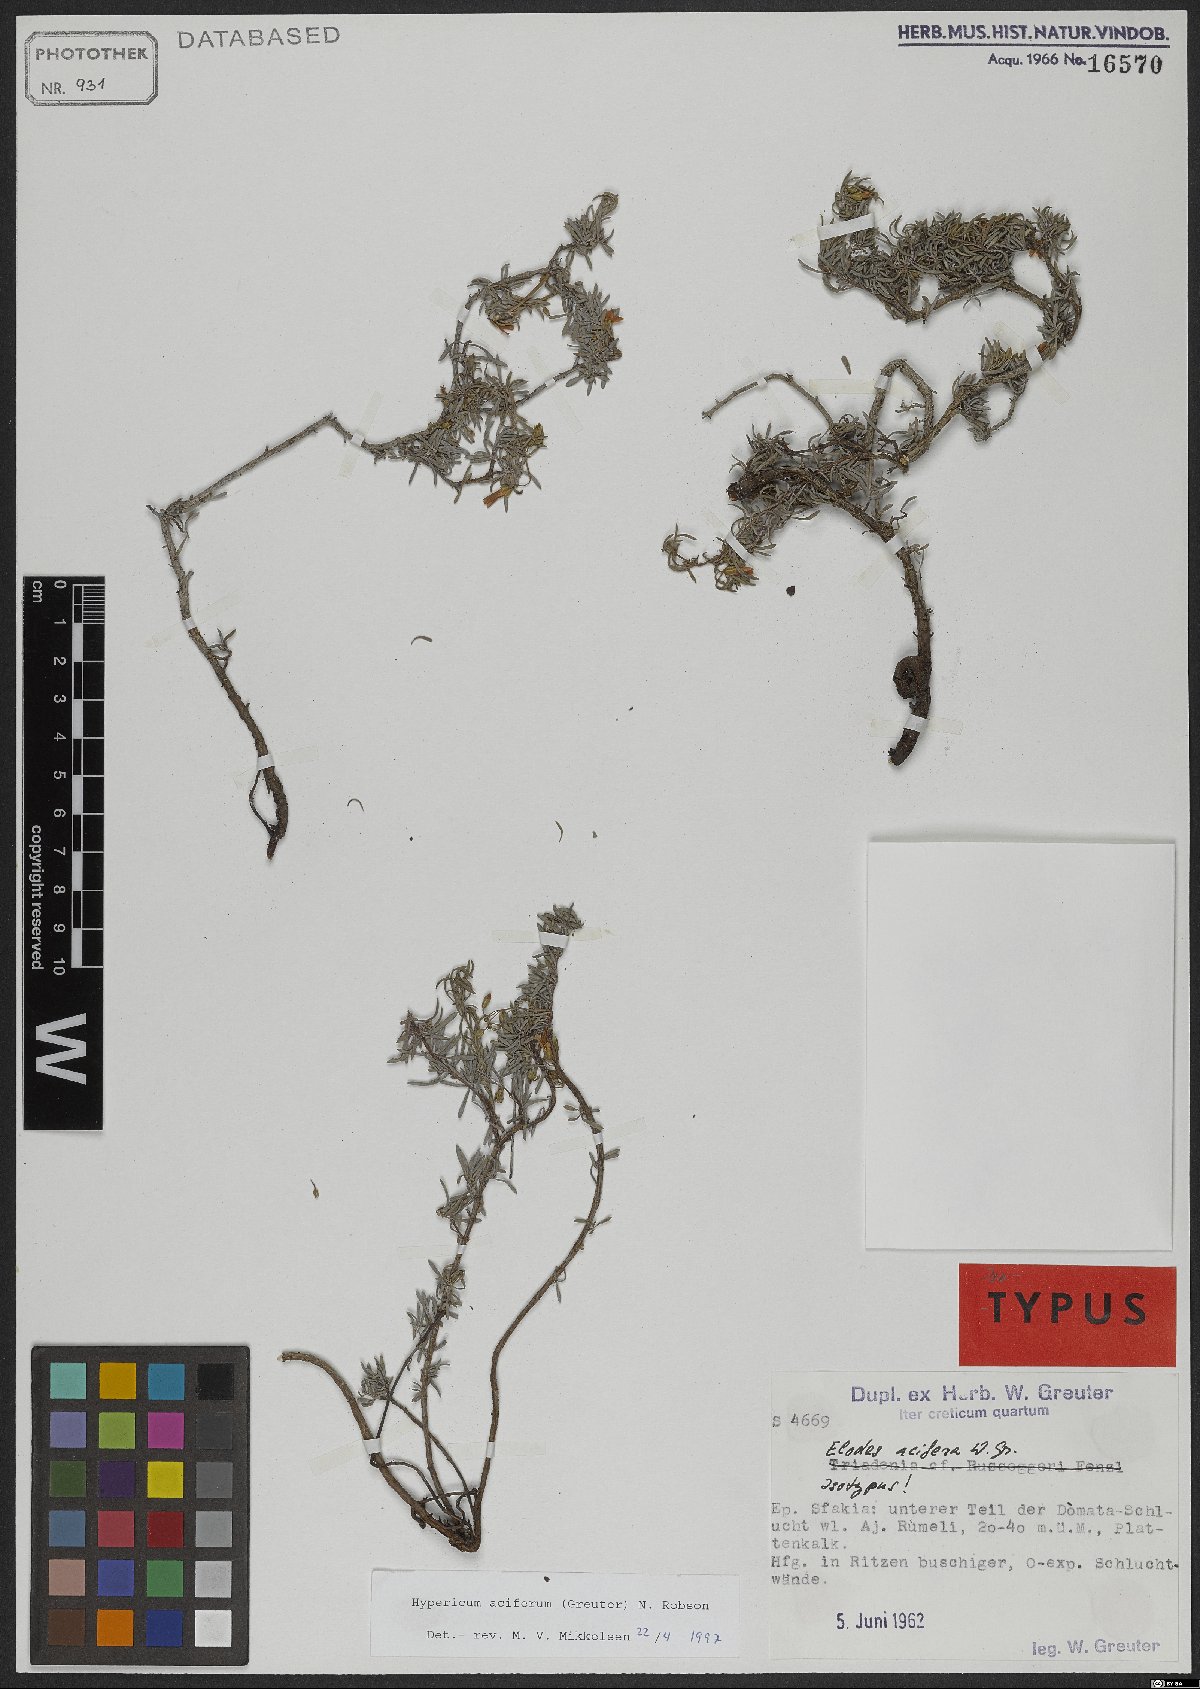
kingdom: Plantae
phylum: Tracheophyta
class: Magnoliopsida
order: Malpighiales
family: Hypericaceae
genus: Hypericum
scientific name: Hypericum aciferum
